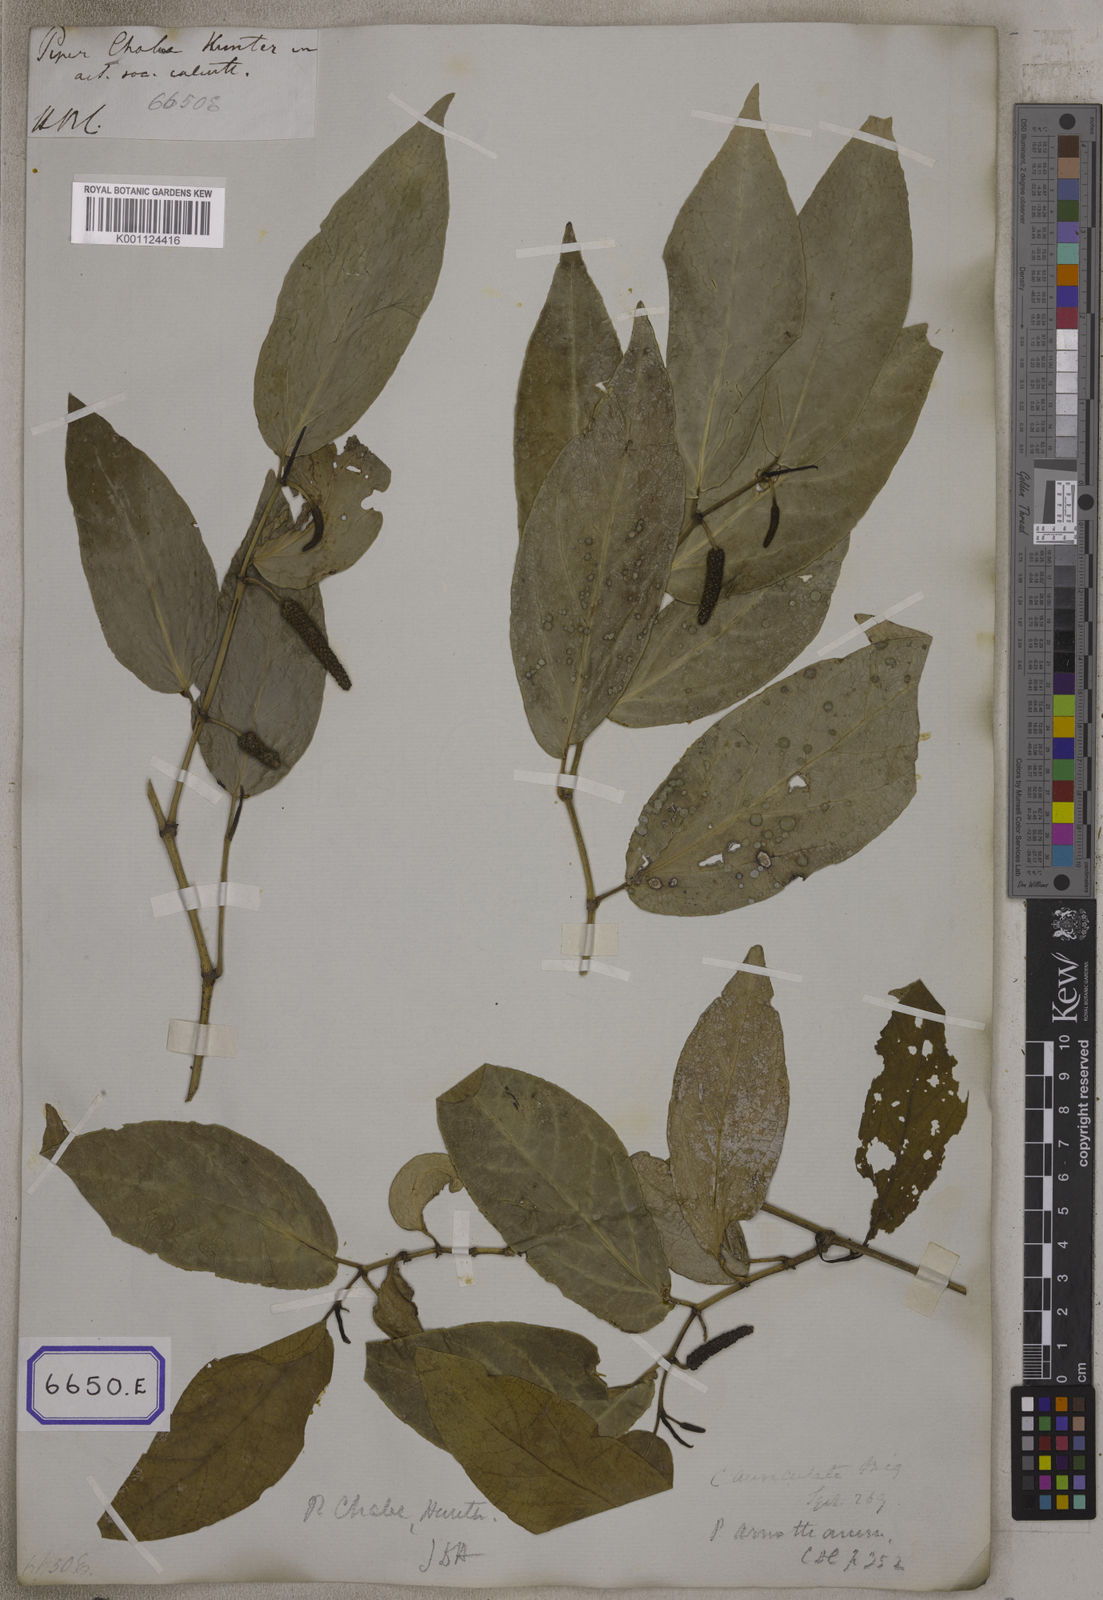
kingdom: Plantae
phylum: Tracheophyta
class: Magnoliopsida
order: Piperales
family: Piperaceae
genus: Piper
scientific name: Piper
